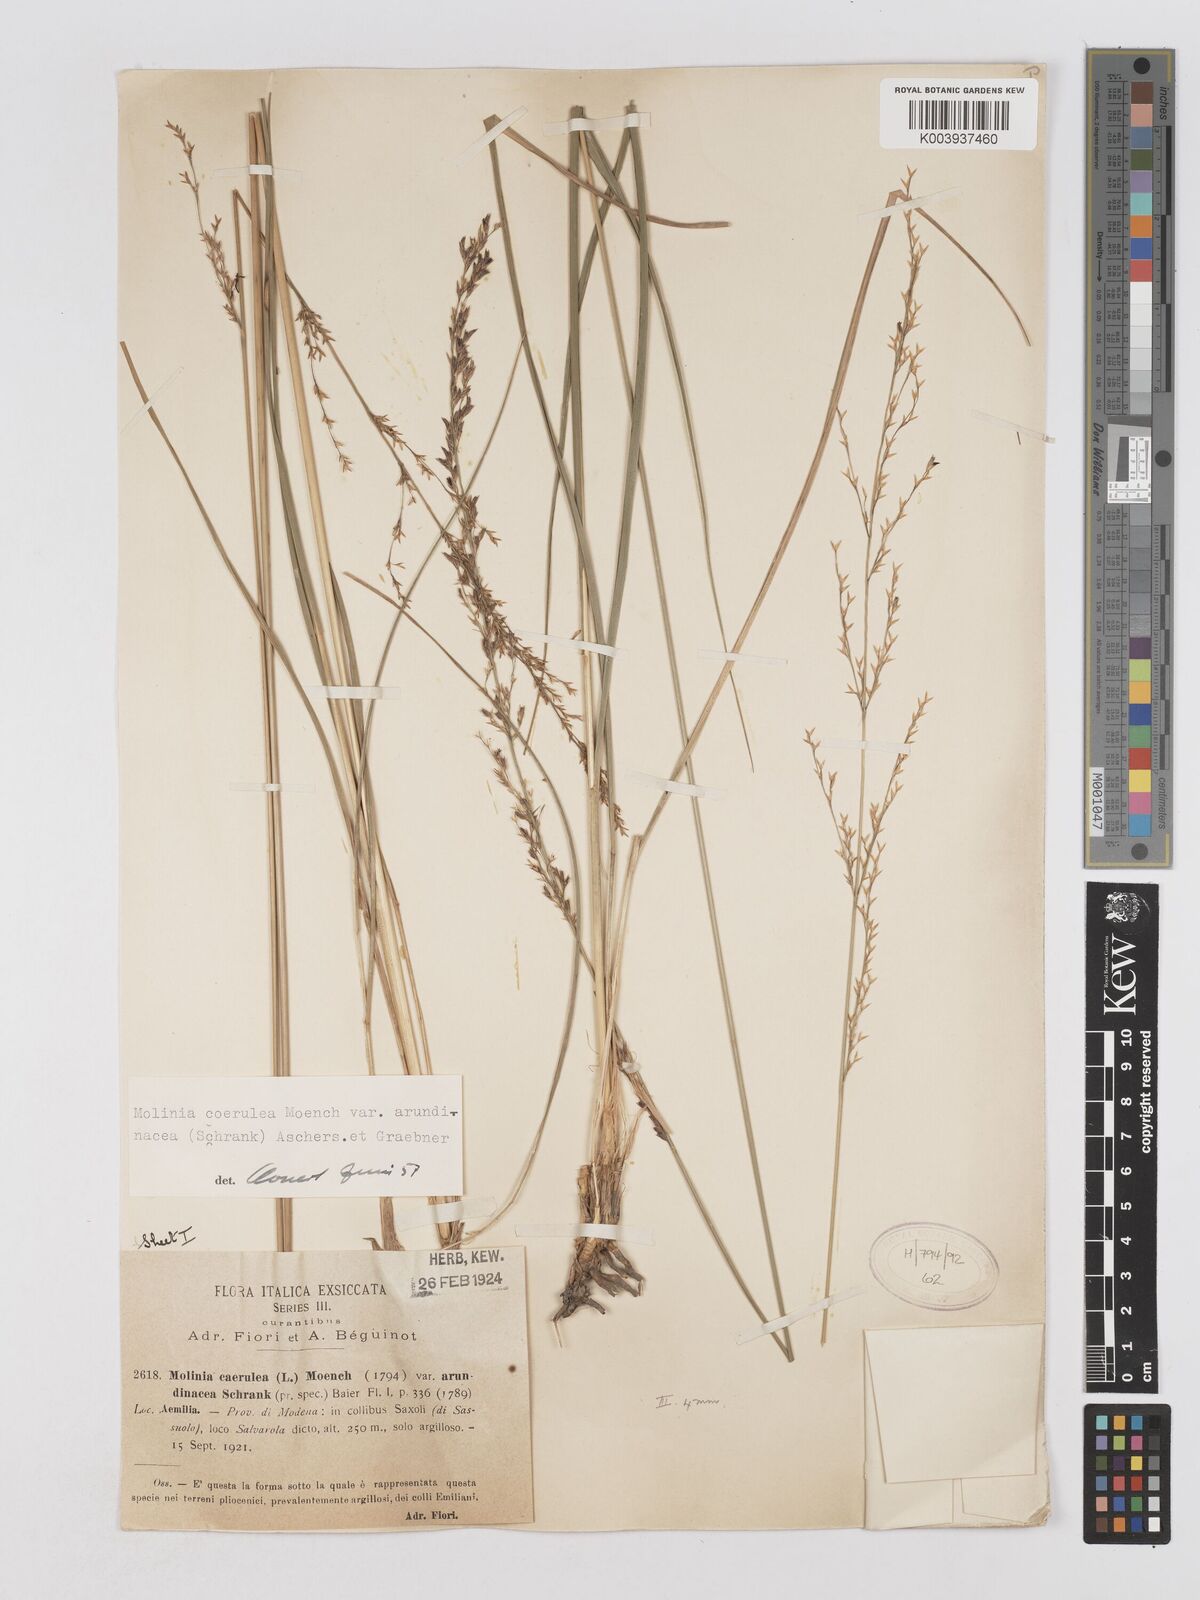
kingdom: Plantae
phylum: Tracheophyta
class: Liliopsida
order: Poales
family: Poaceae
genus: Molinia
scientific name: Molinia caerulea
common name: Purple moor-grass
